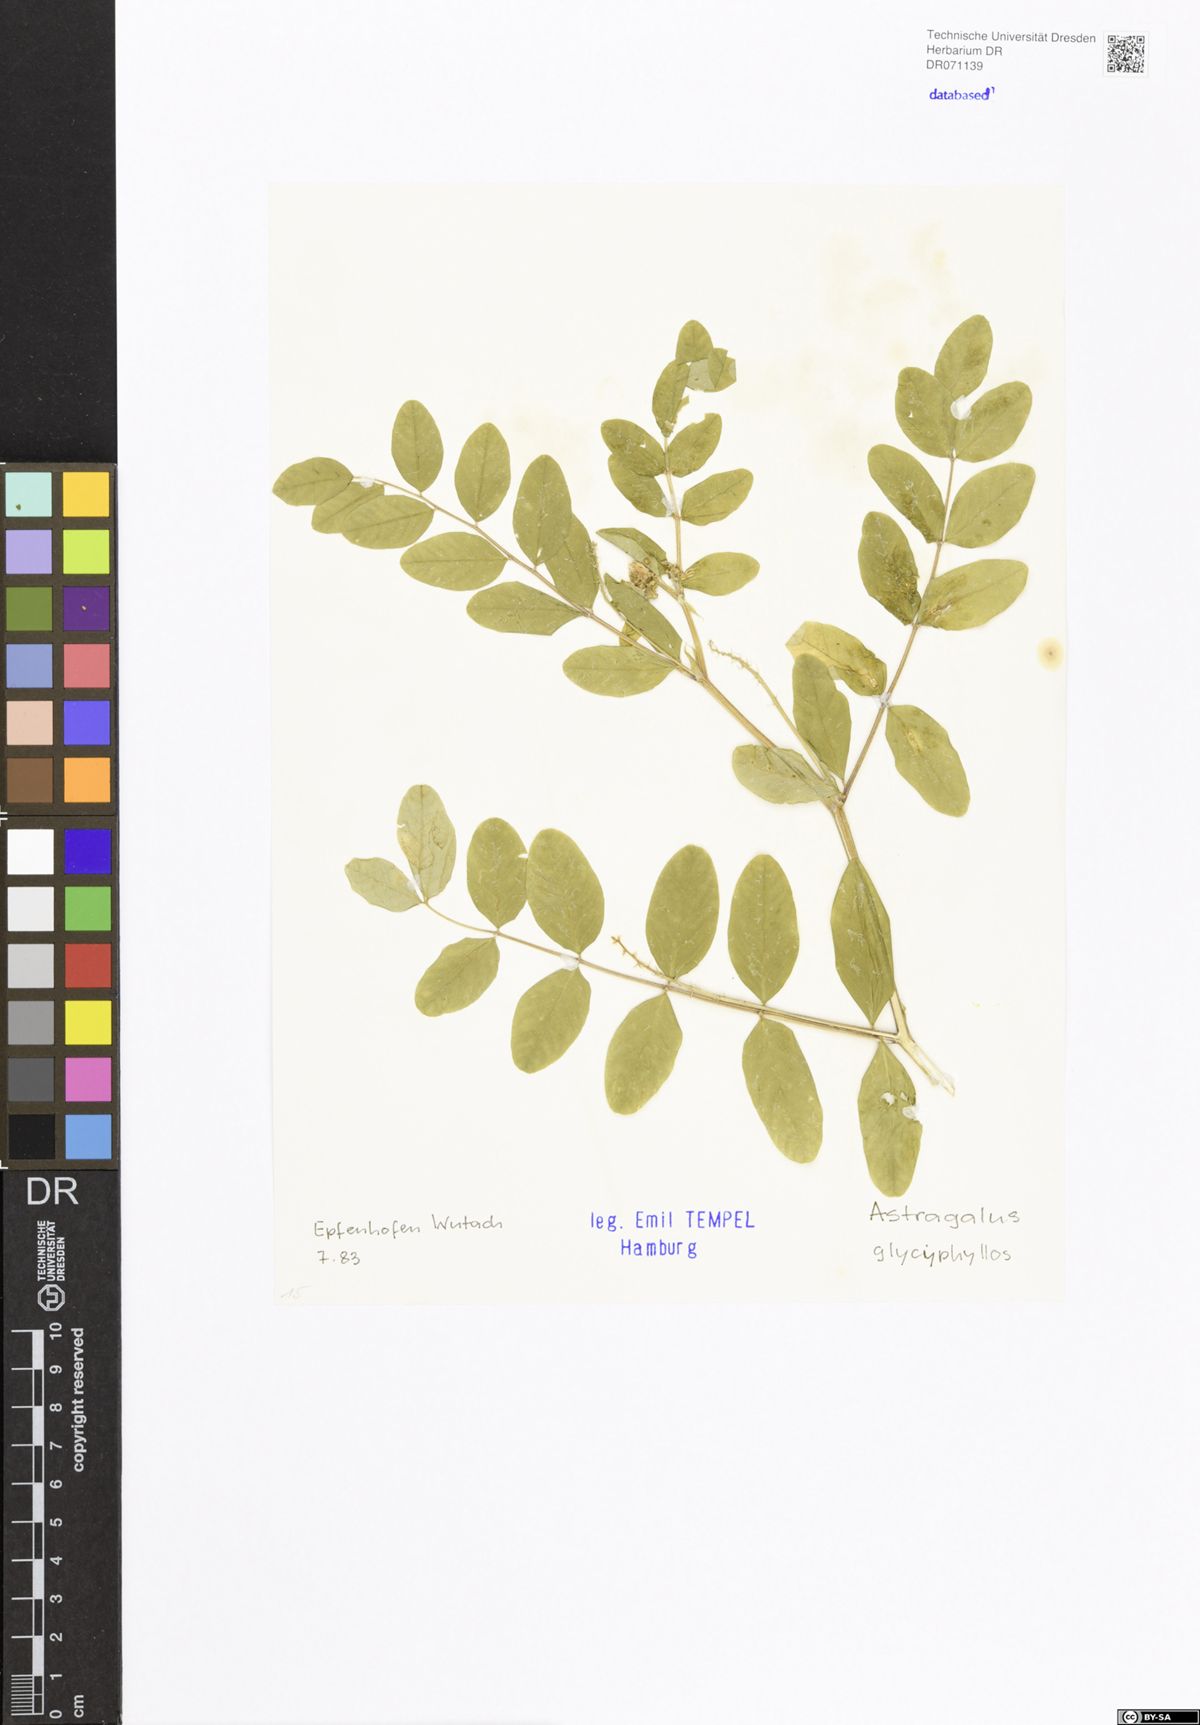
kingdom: Plantae
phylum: Tracheophyta
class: Magnoliopsida
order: Fabales
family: Fabaceae
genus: Astragalus
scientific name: Astragalus glycyphyllos
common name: Wild liquorice
